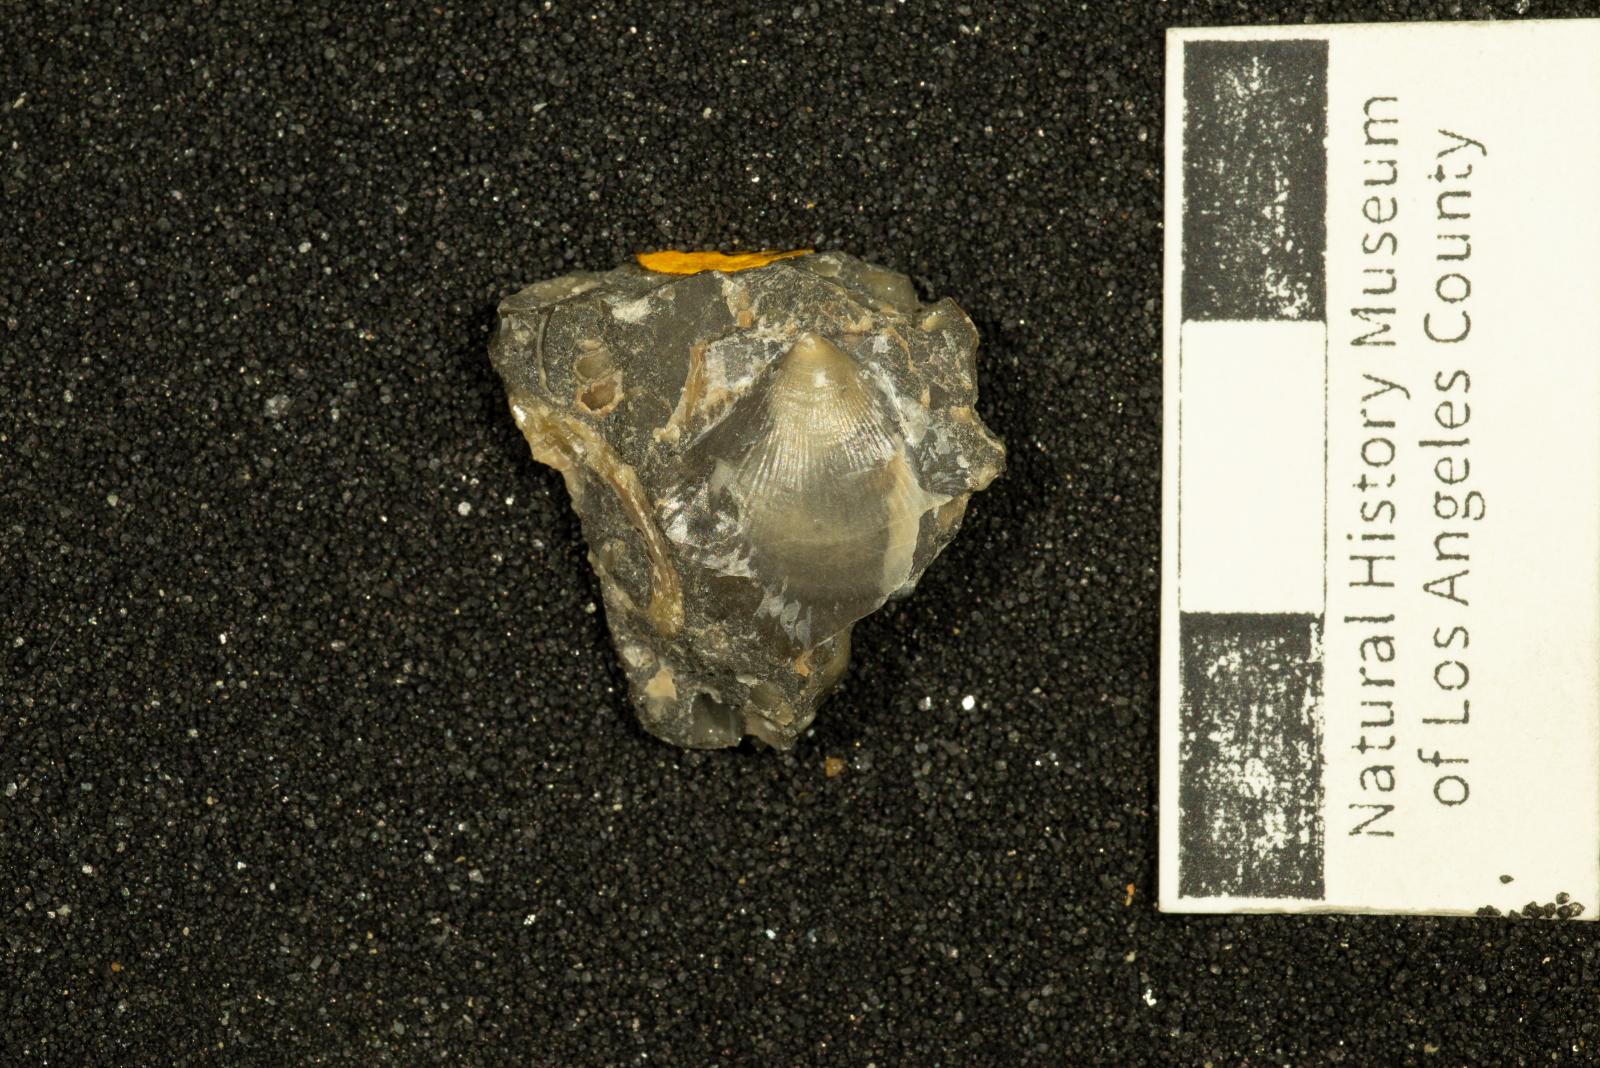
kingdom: Animalia
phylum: Mollusca
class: Bivalvia
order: Pectinida
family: Pectinidae
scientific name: Pectinidae
